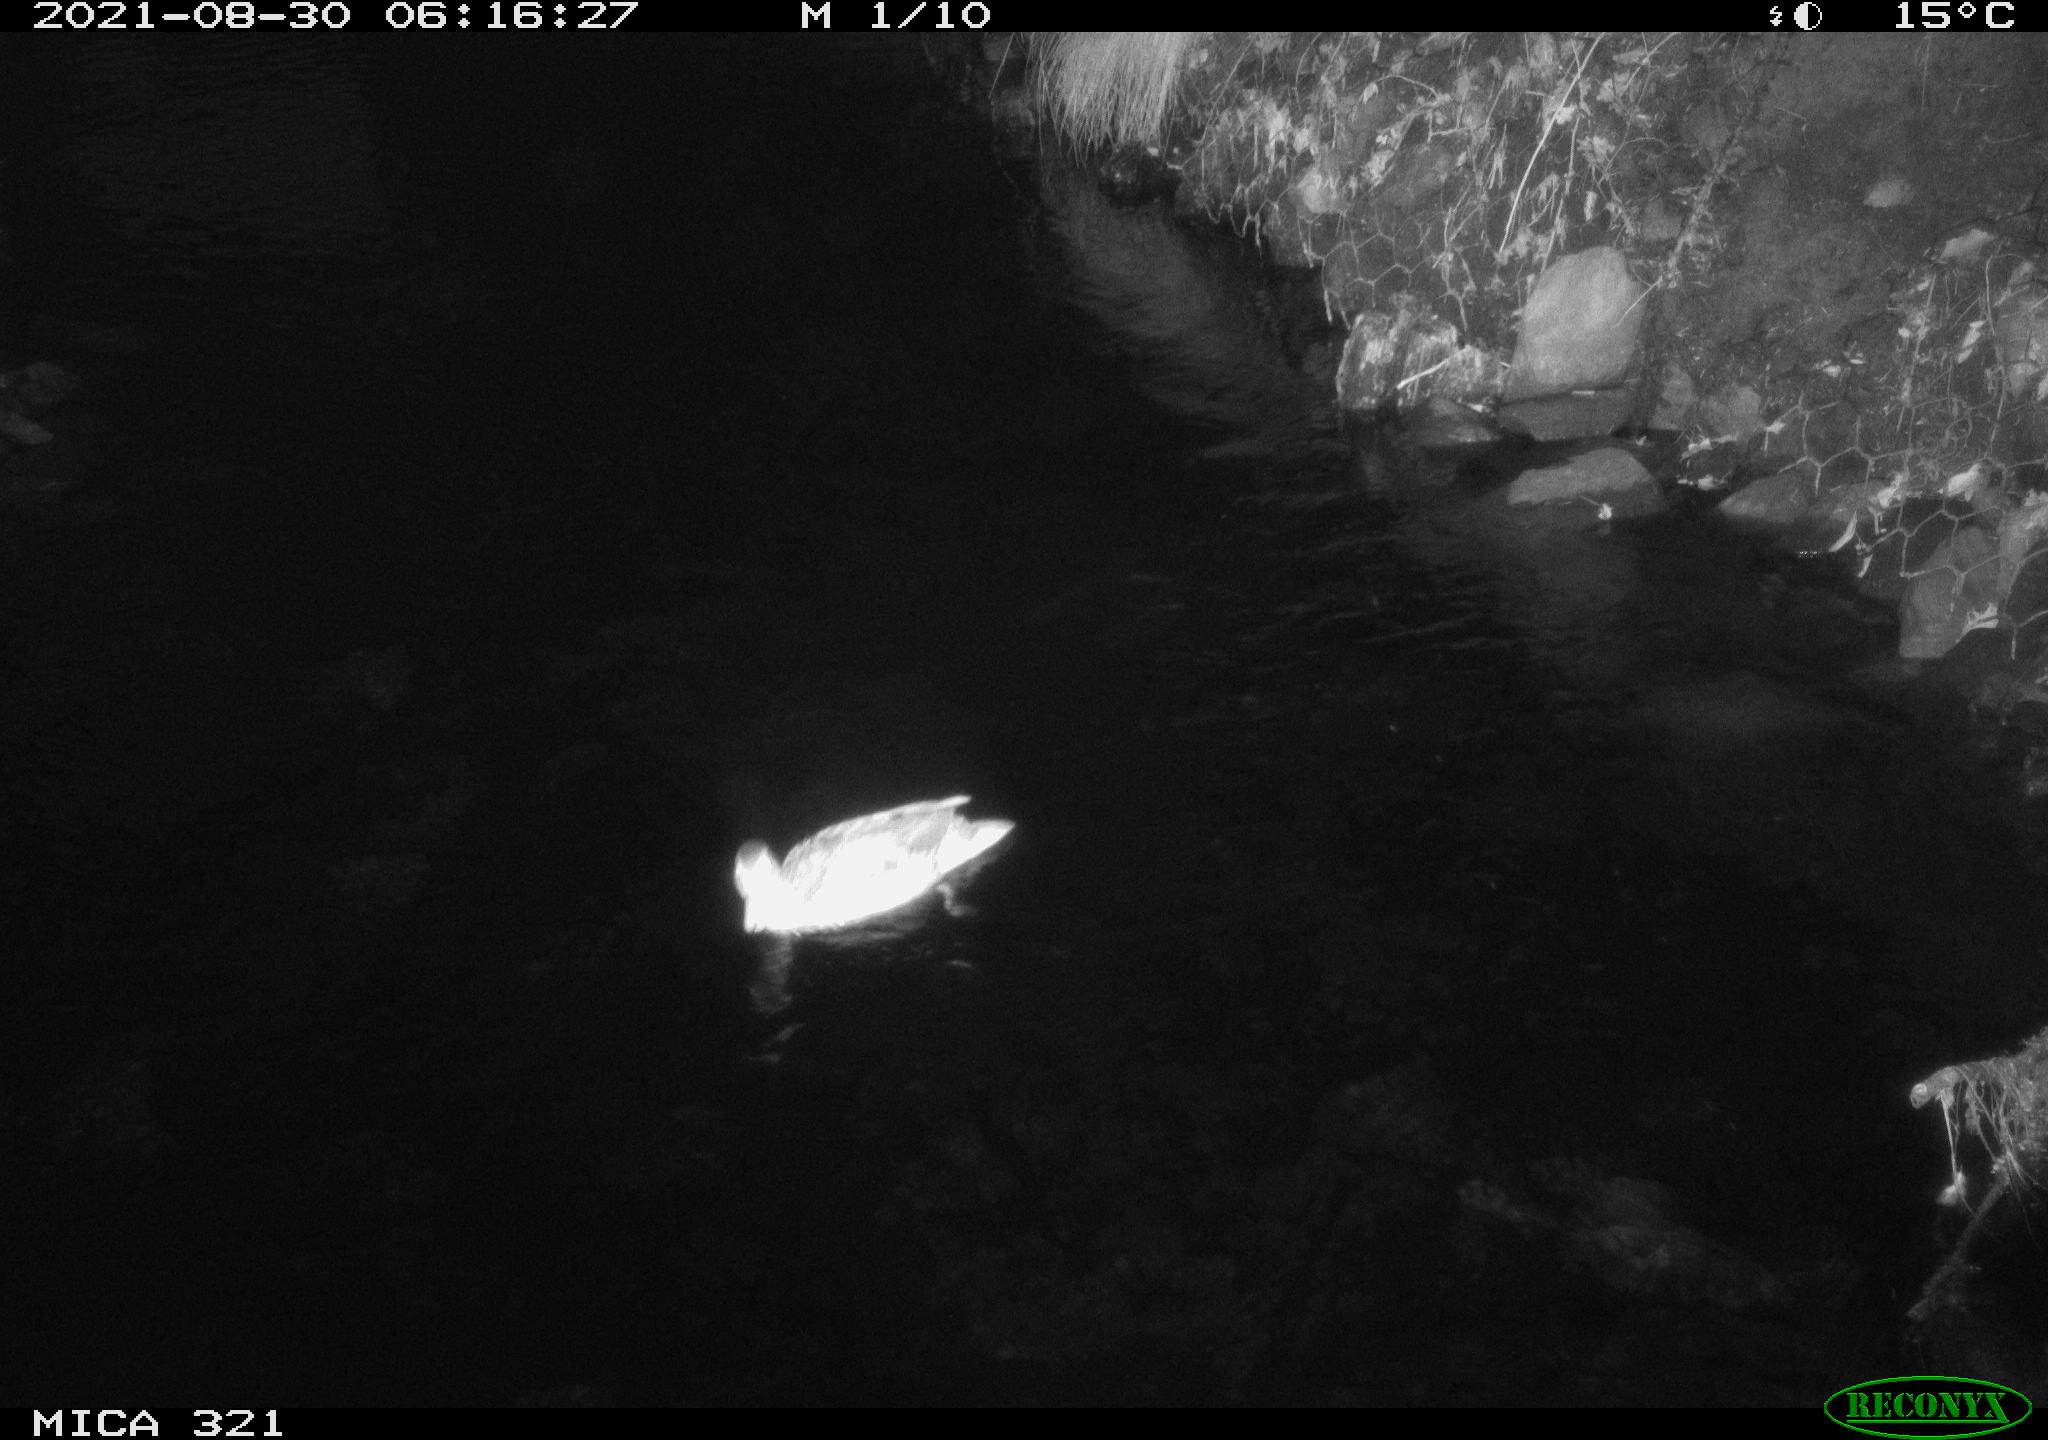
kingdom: Animalia
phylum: Chordata
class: Aves
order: Anseriformes
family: Anatidae
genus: Anas
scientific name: Anas platyrhynchos
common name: Mallard
